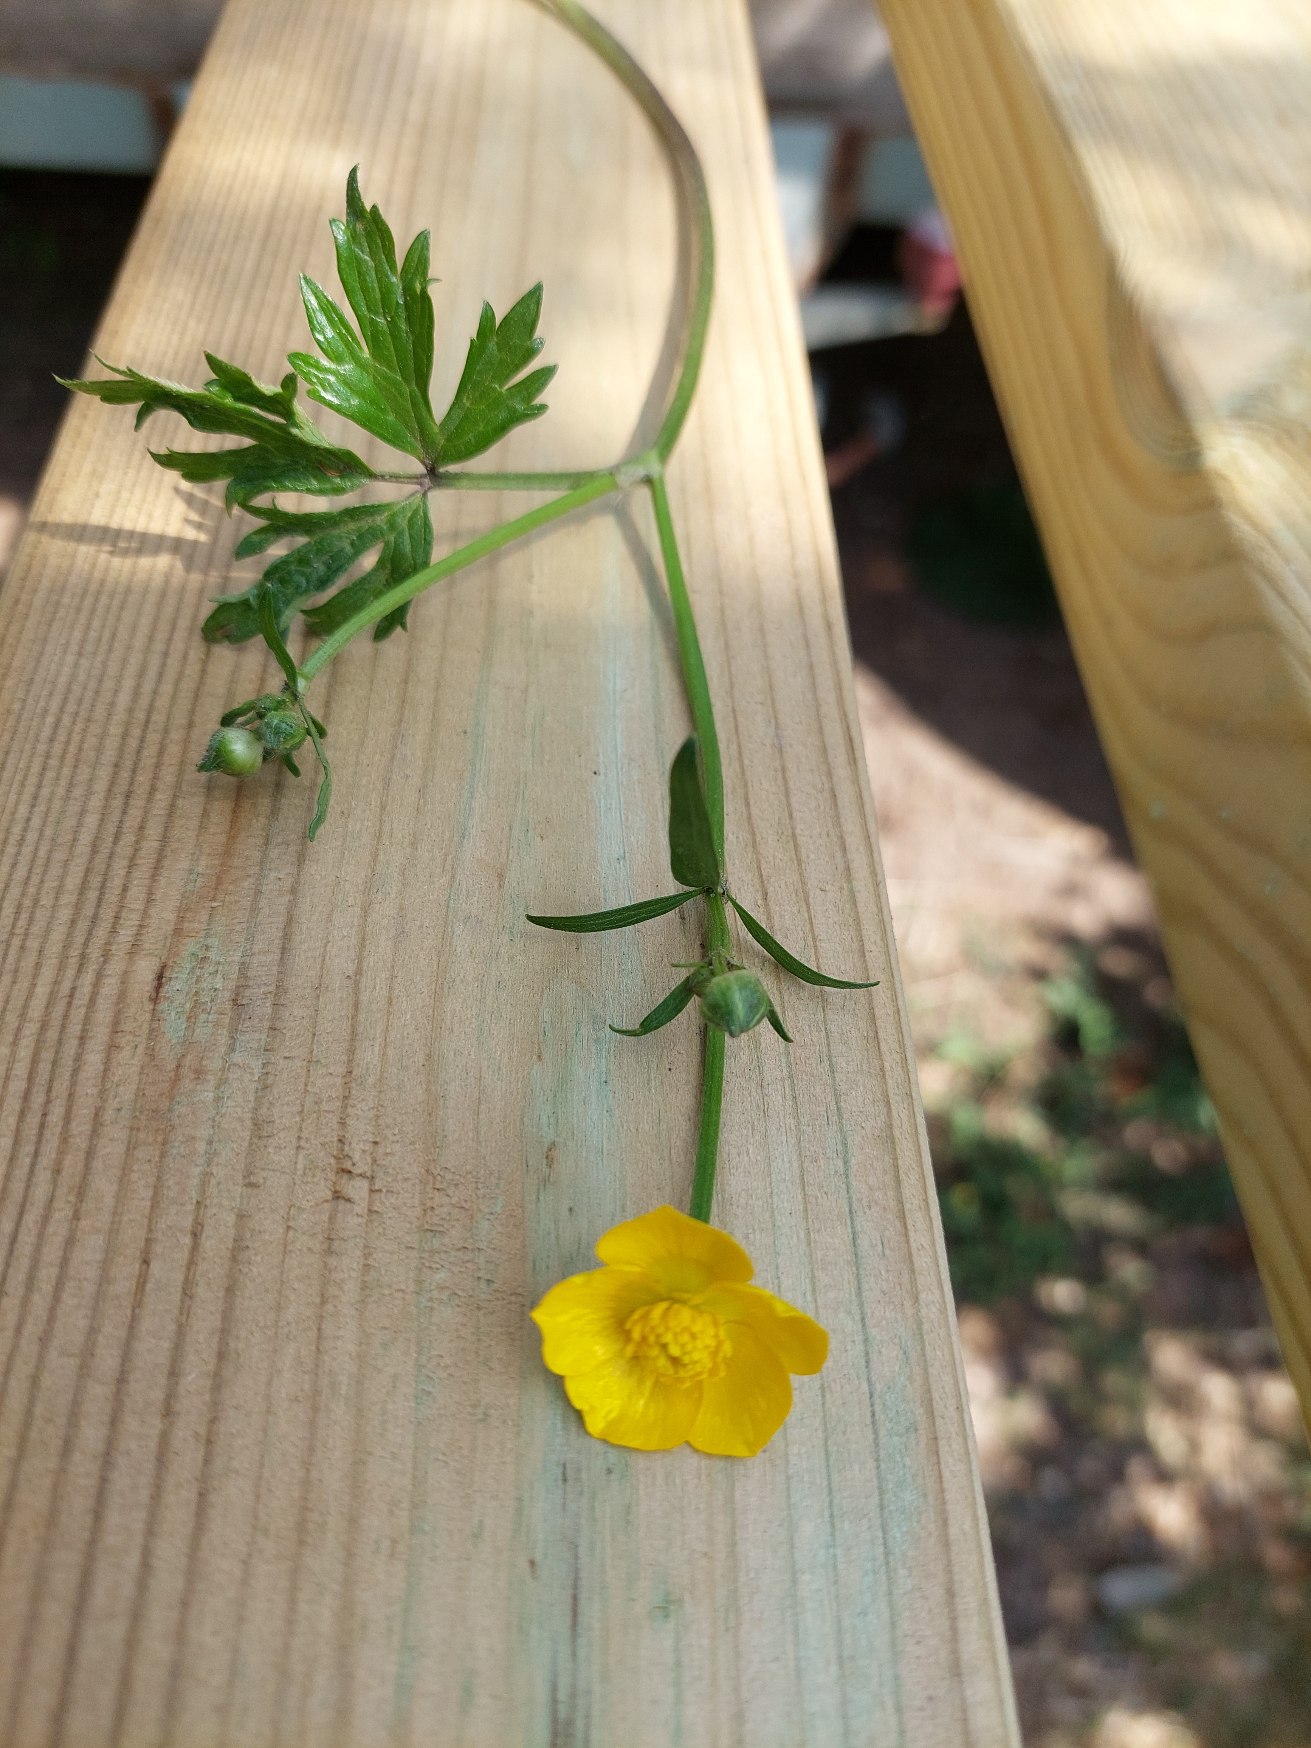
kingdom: Plantae
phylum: Tracheophyta
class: Magnoliopsida
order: Ranunculales
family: Ranunculaceae
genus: Ranunculus
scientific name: Ranunculus repens
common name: Lav ranunkel
